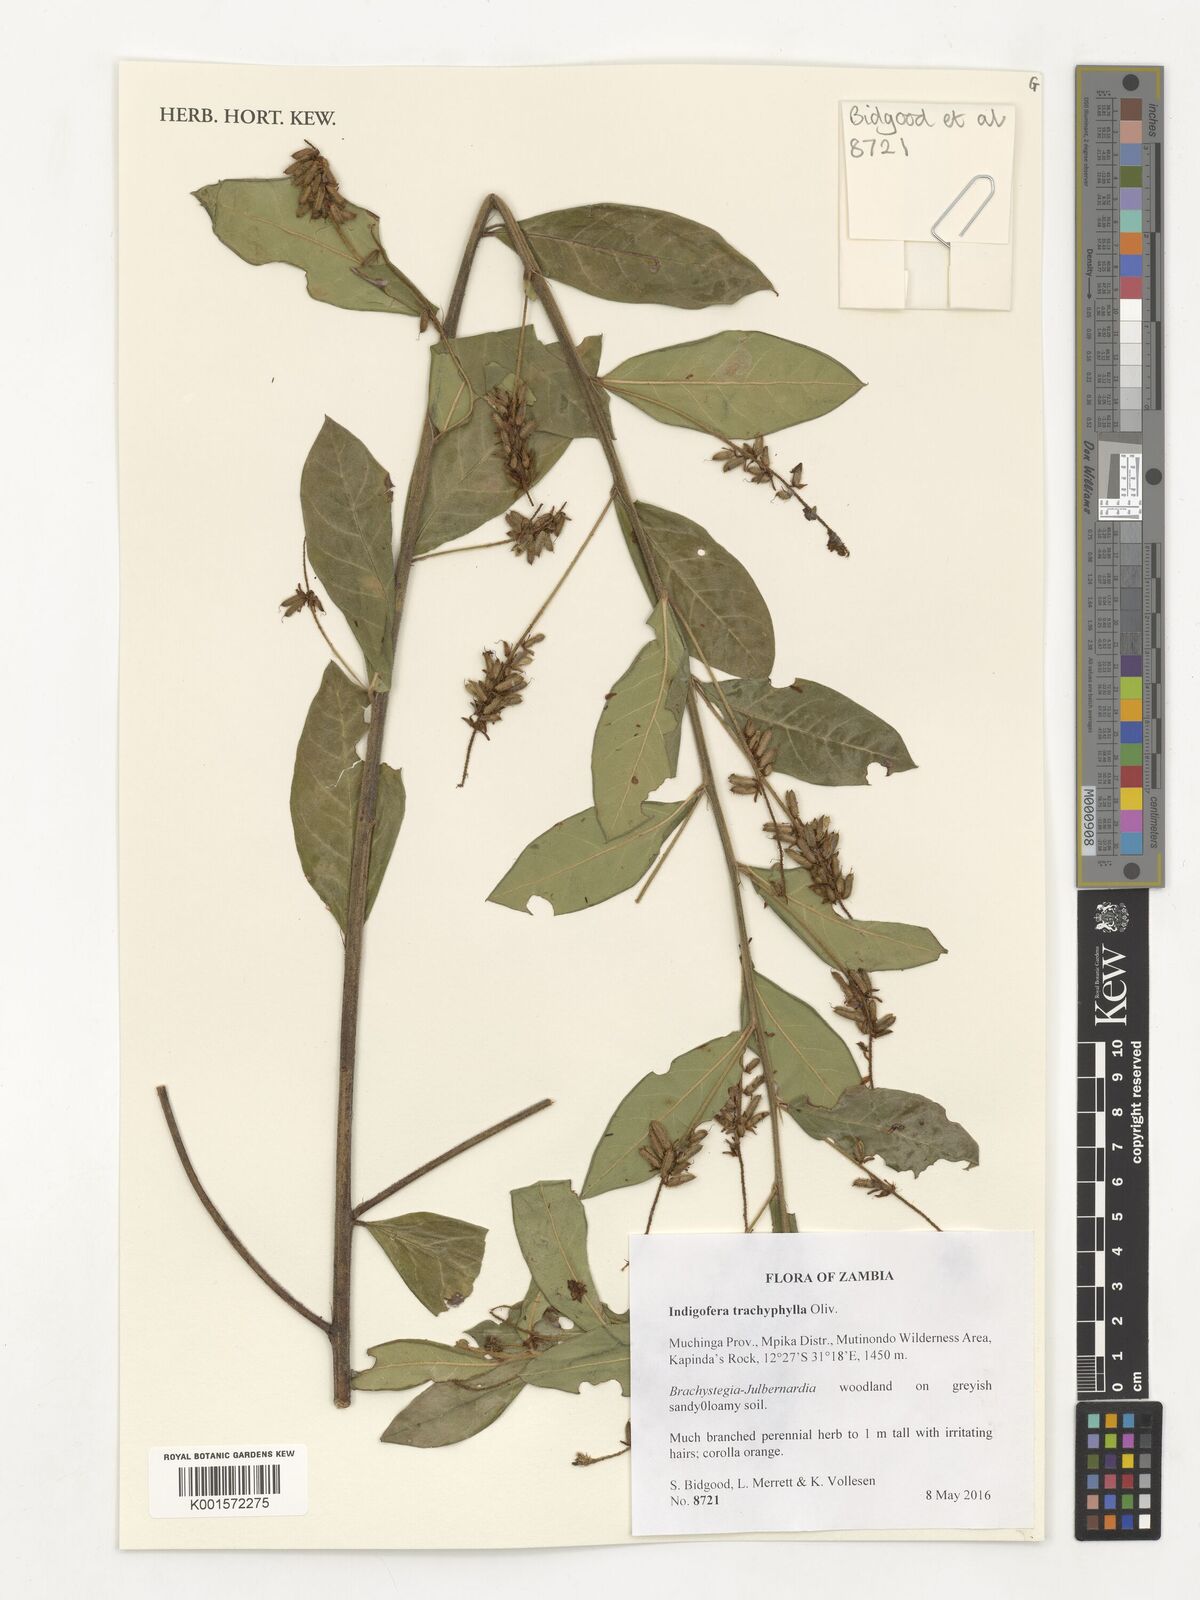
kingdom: Plantae
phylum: Tracheophyta
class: Magnoliopsida
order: Fabales
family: Fabaceae
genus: Indigofera
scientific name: Indigofera trachyphylla
